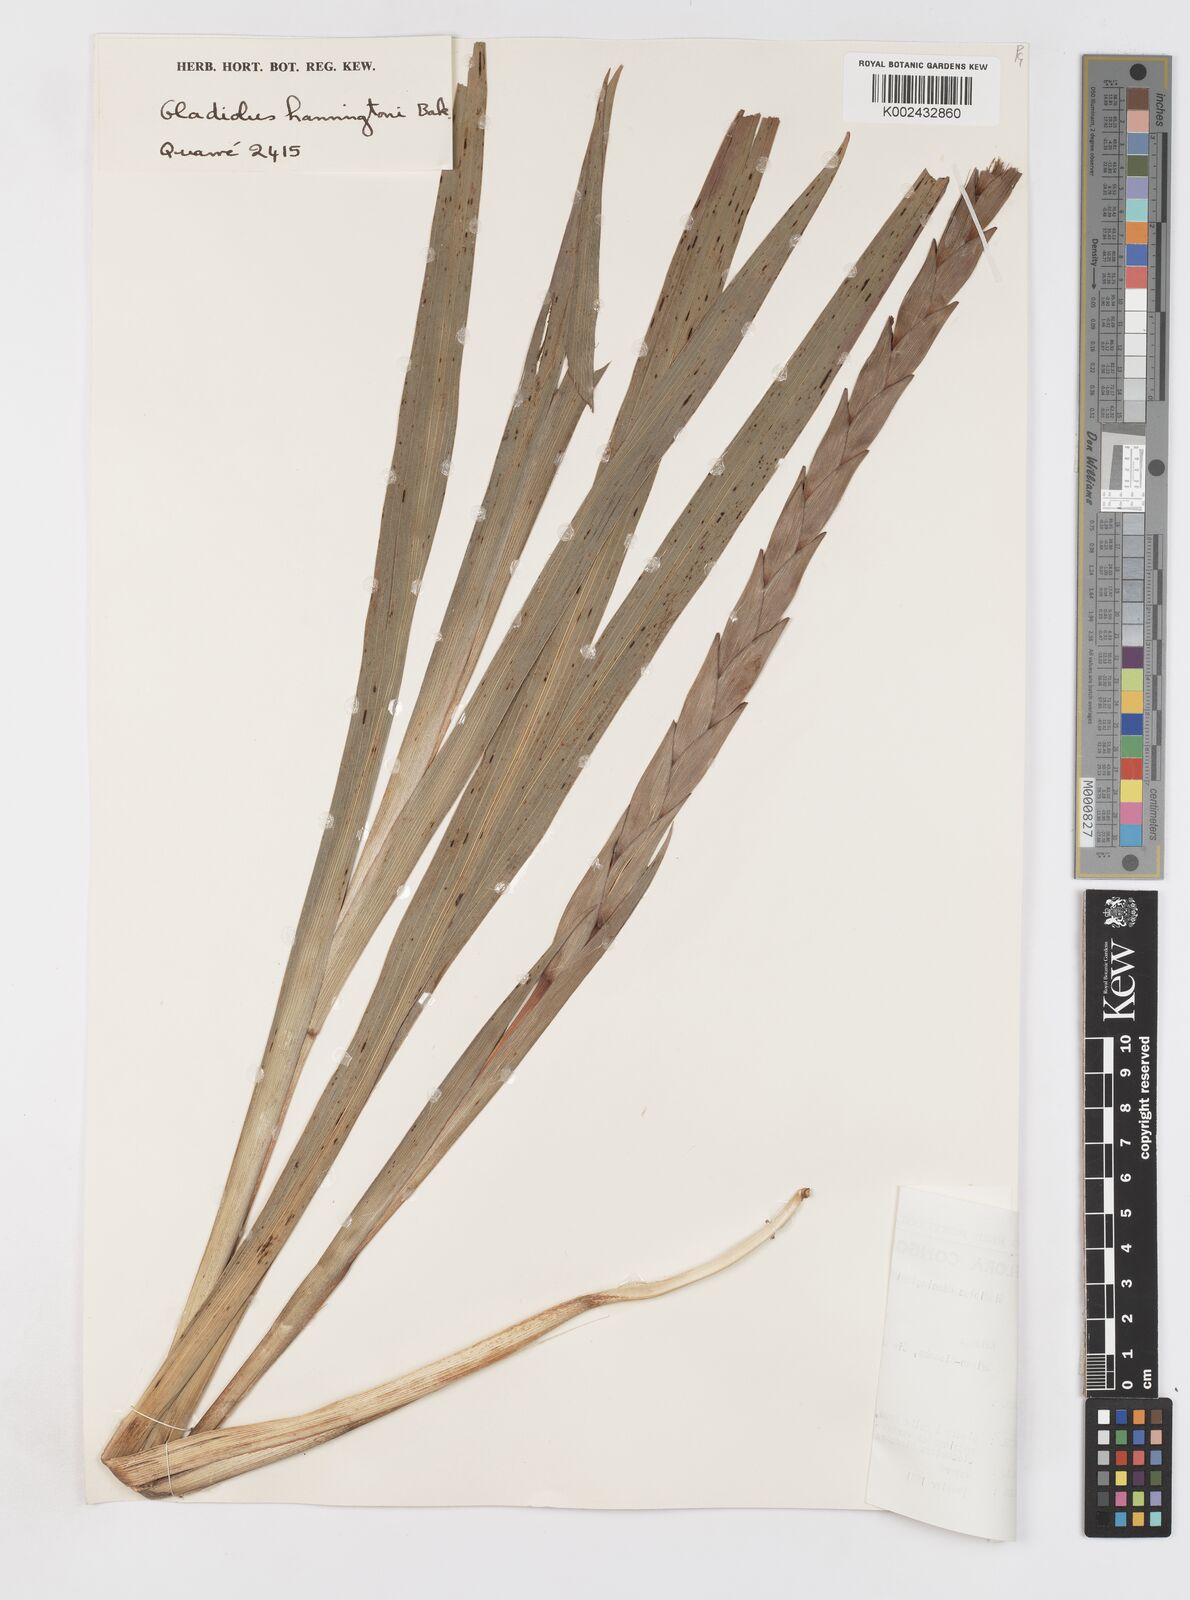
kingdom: Plantae
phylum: Tracheophyta
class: Liliopsida
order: Asparagales
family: Iridaceae
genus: Gladiolus
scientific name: Gladiolus gregarius
